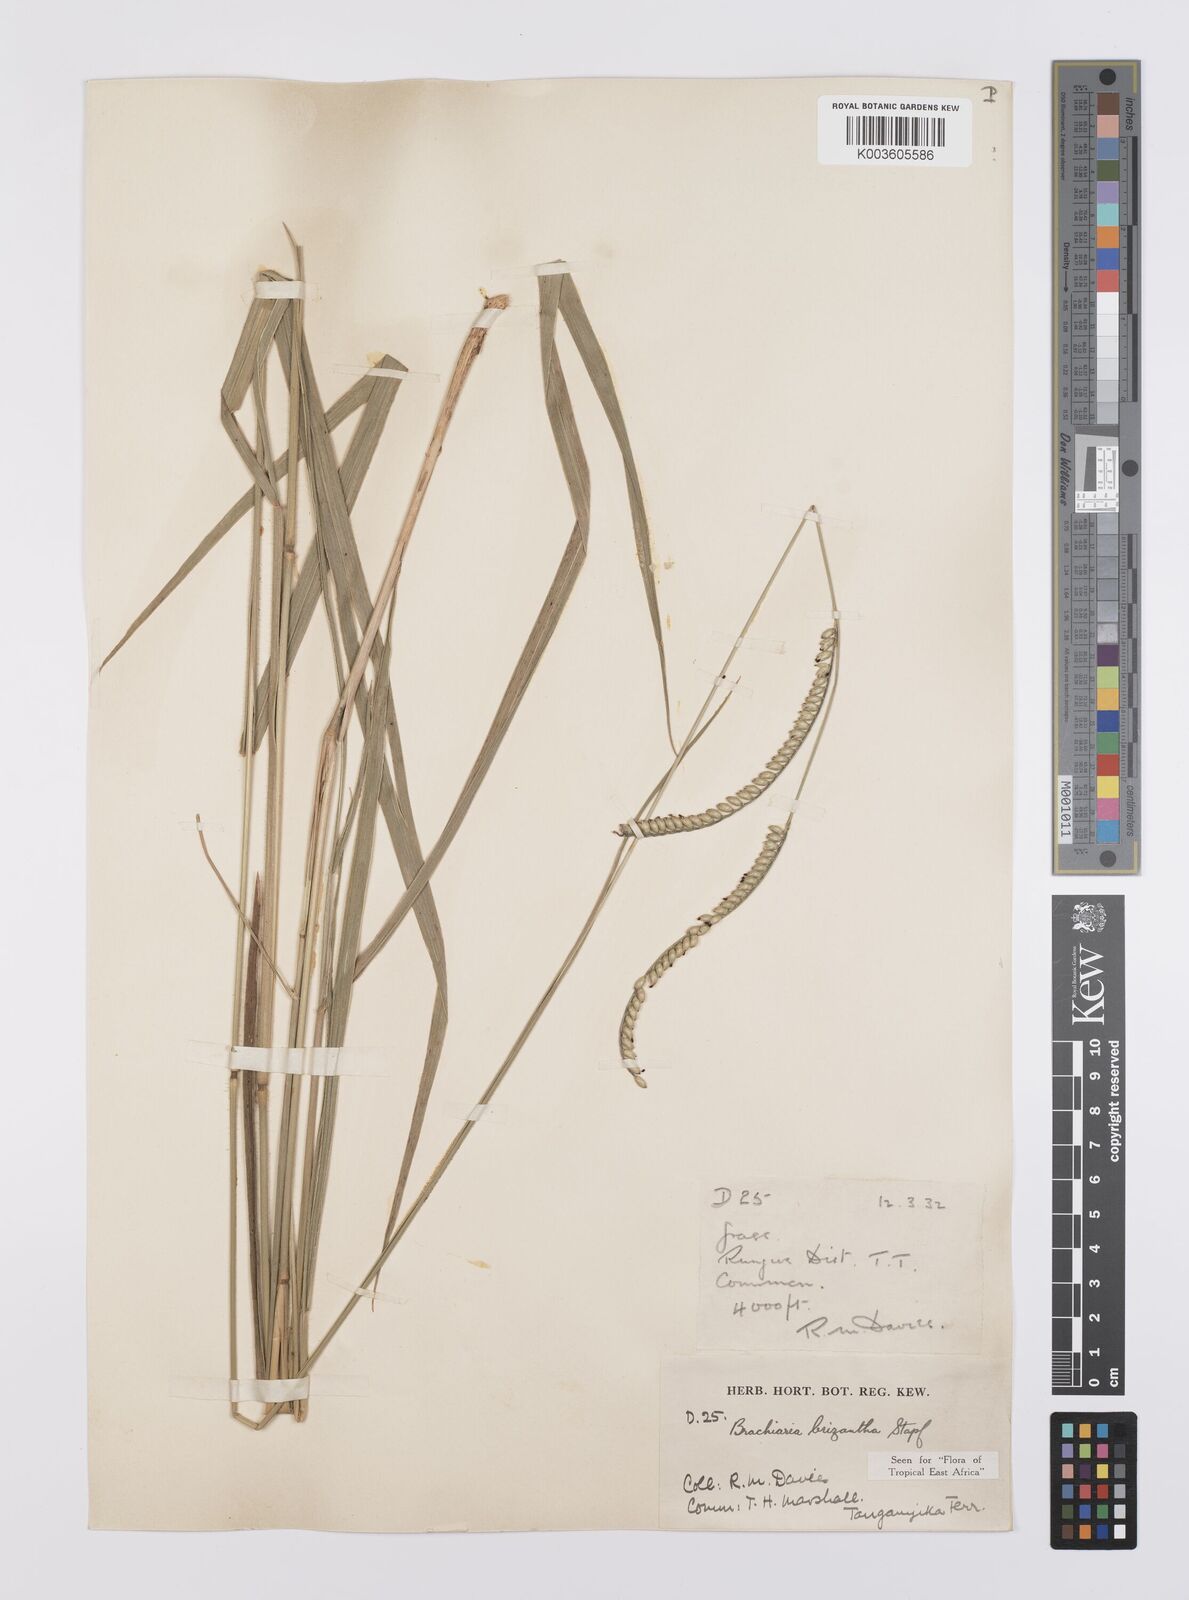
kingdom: Plantae
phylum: Tracheophyta
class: Liliopsida
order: Poales
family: Poaceae
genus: Urochloa
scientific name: Urochloa brizantha
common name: Palisade signalgrass
